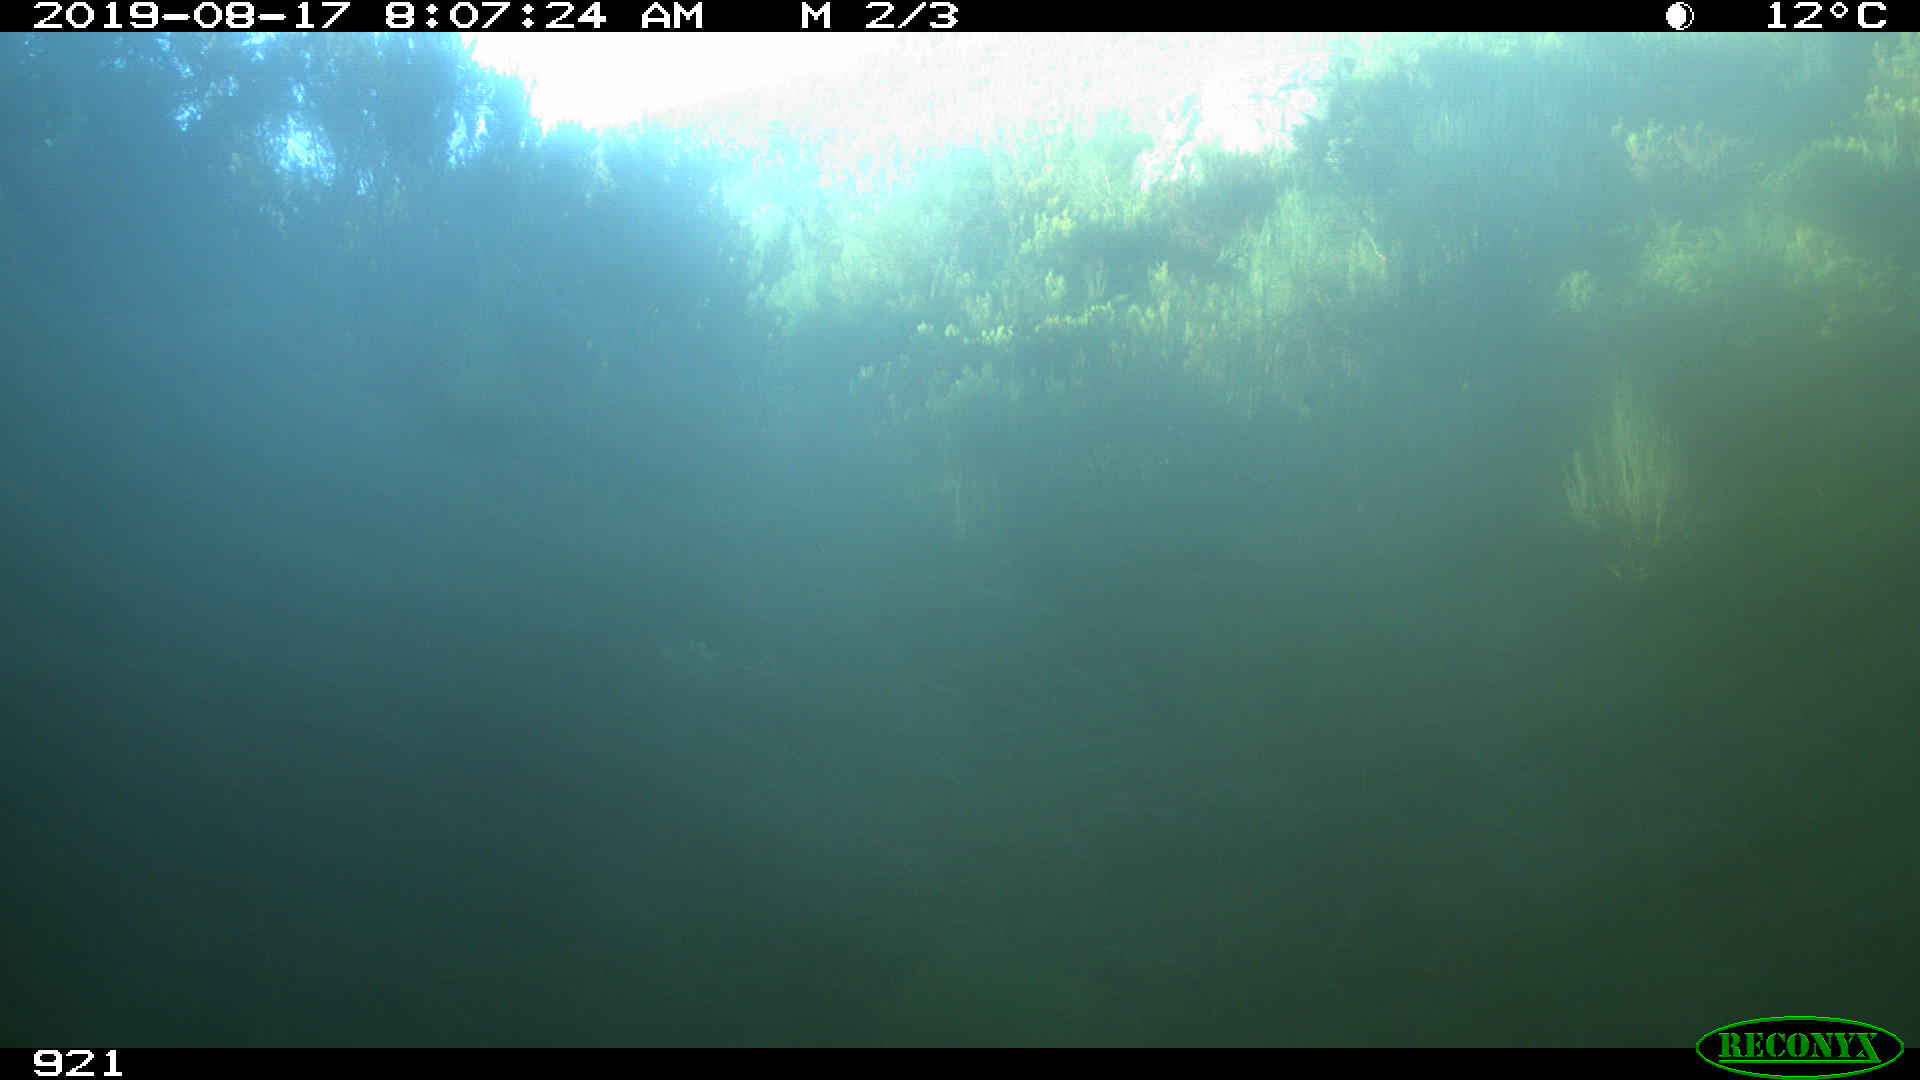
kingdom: Animalia
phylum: Chordata
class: Mammalia
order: Perissodactyla
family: Equidae
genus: Equus
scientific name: Equus caballus
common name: Horse
